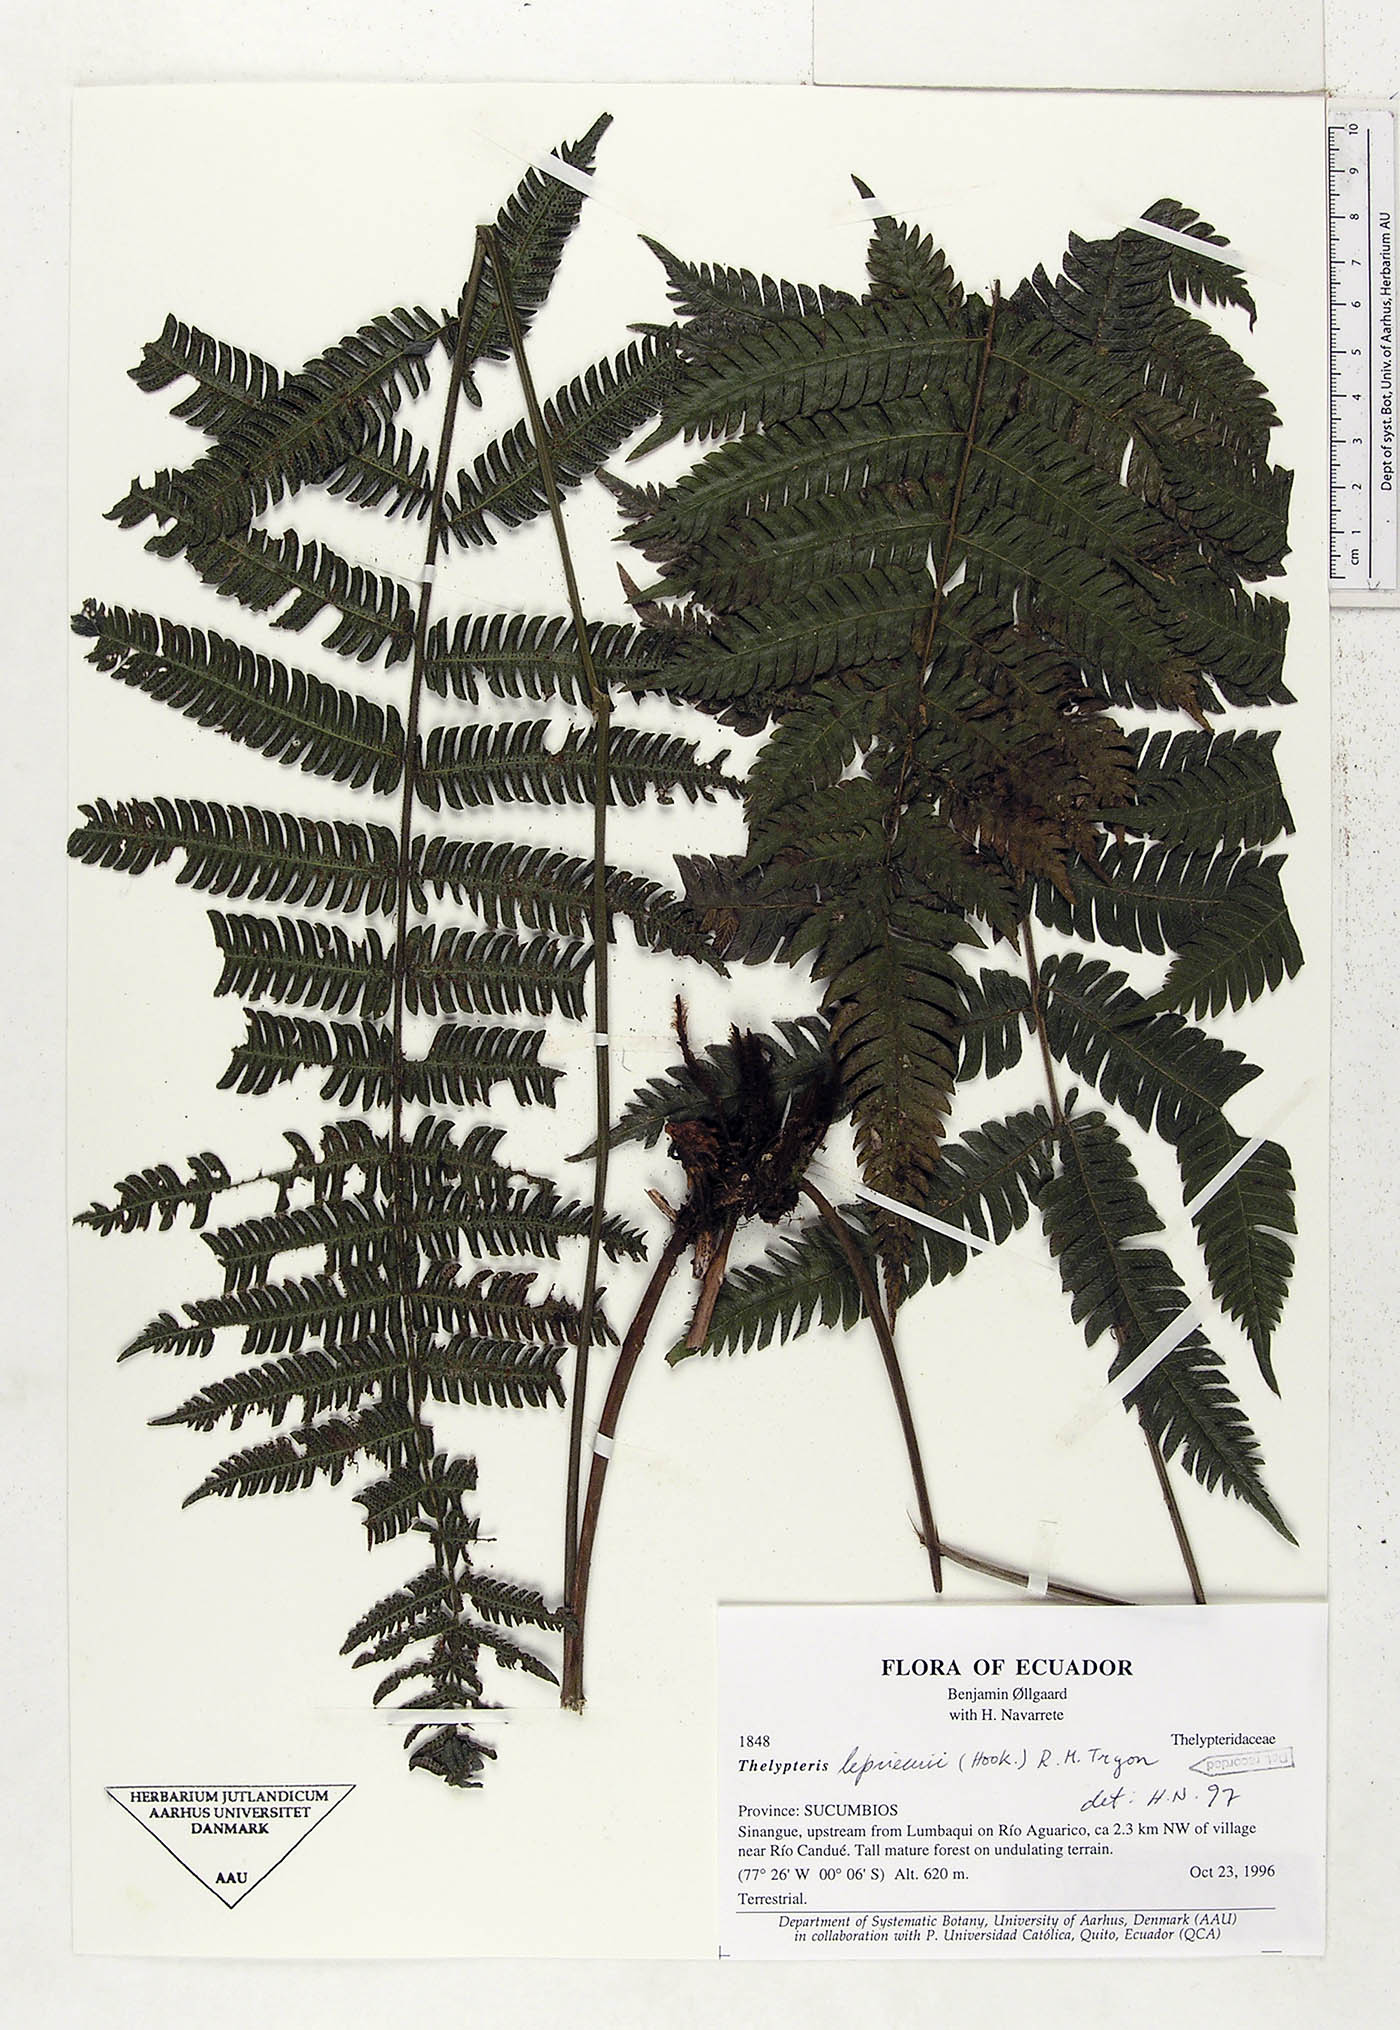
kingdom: Plantae
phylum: Tracheophyta
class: Polypodiopsida
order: Polypodiales
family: Thelypteridaceae
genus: Steiropteris
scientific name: Steiropteris leprieurii
